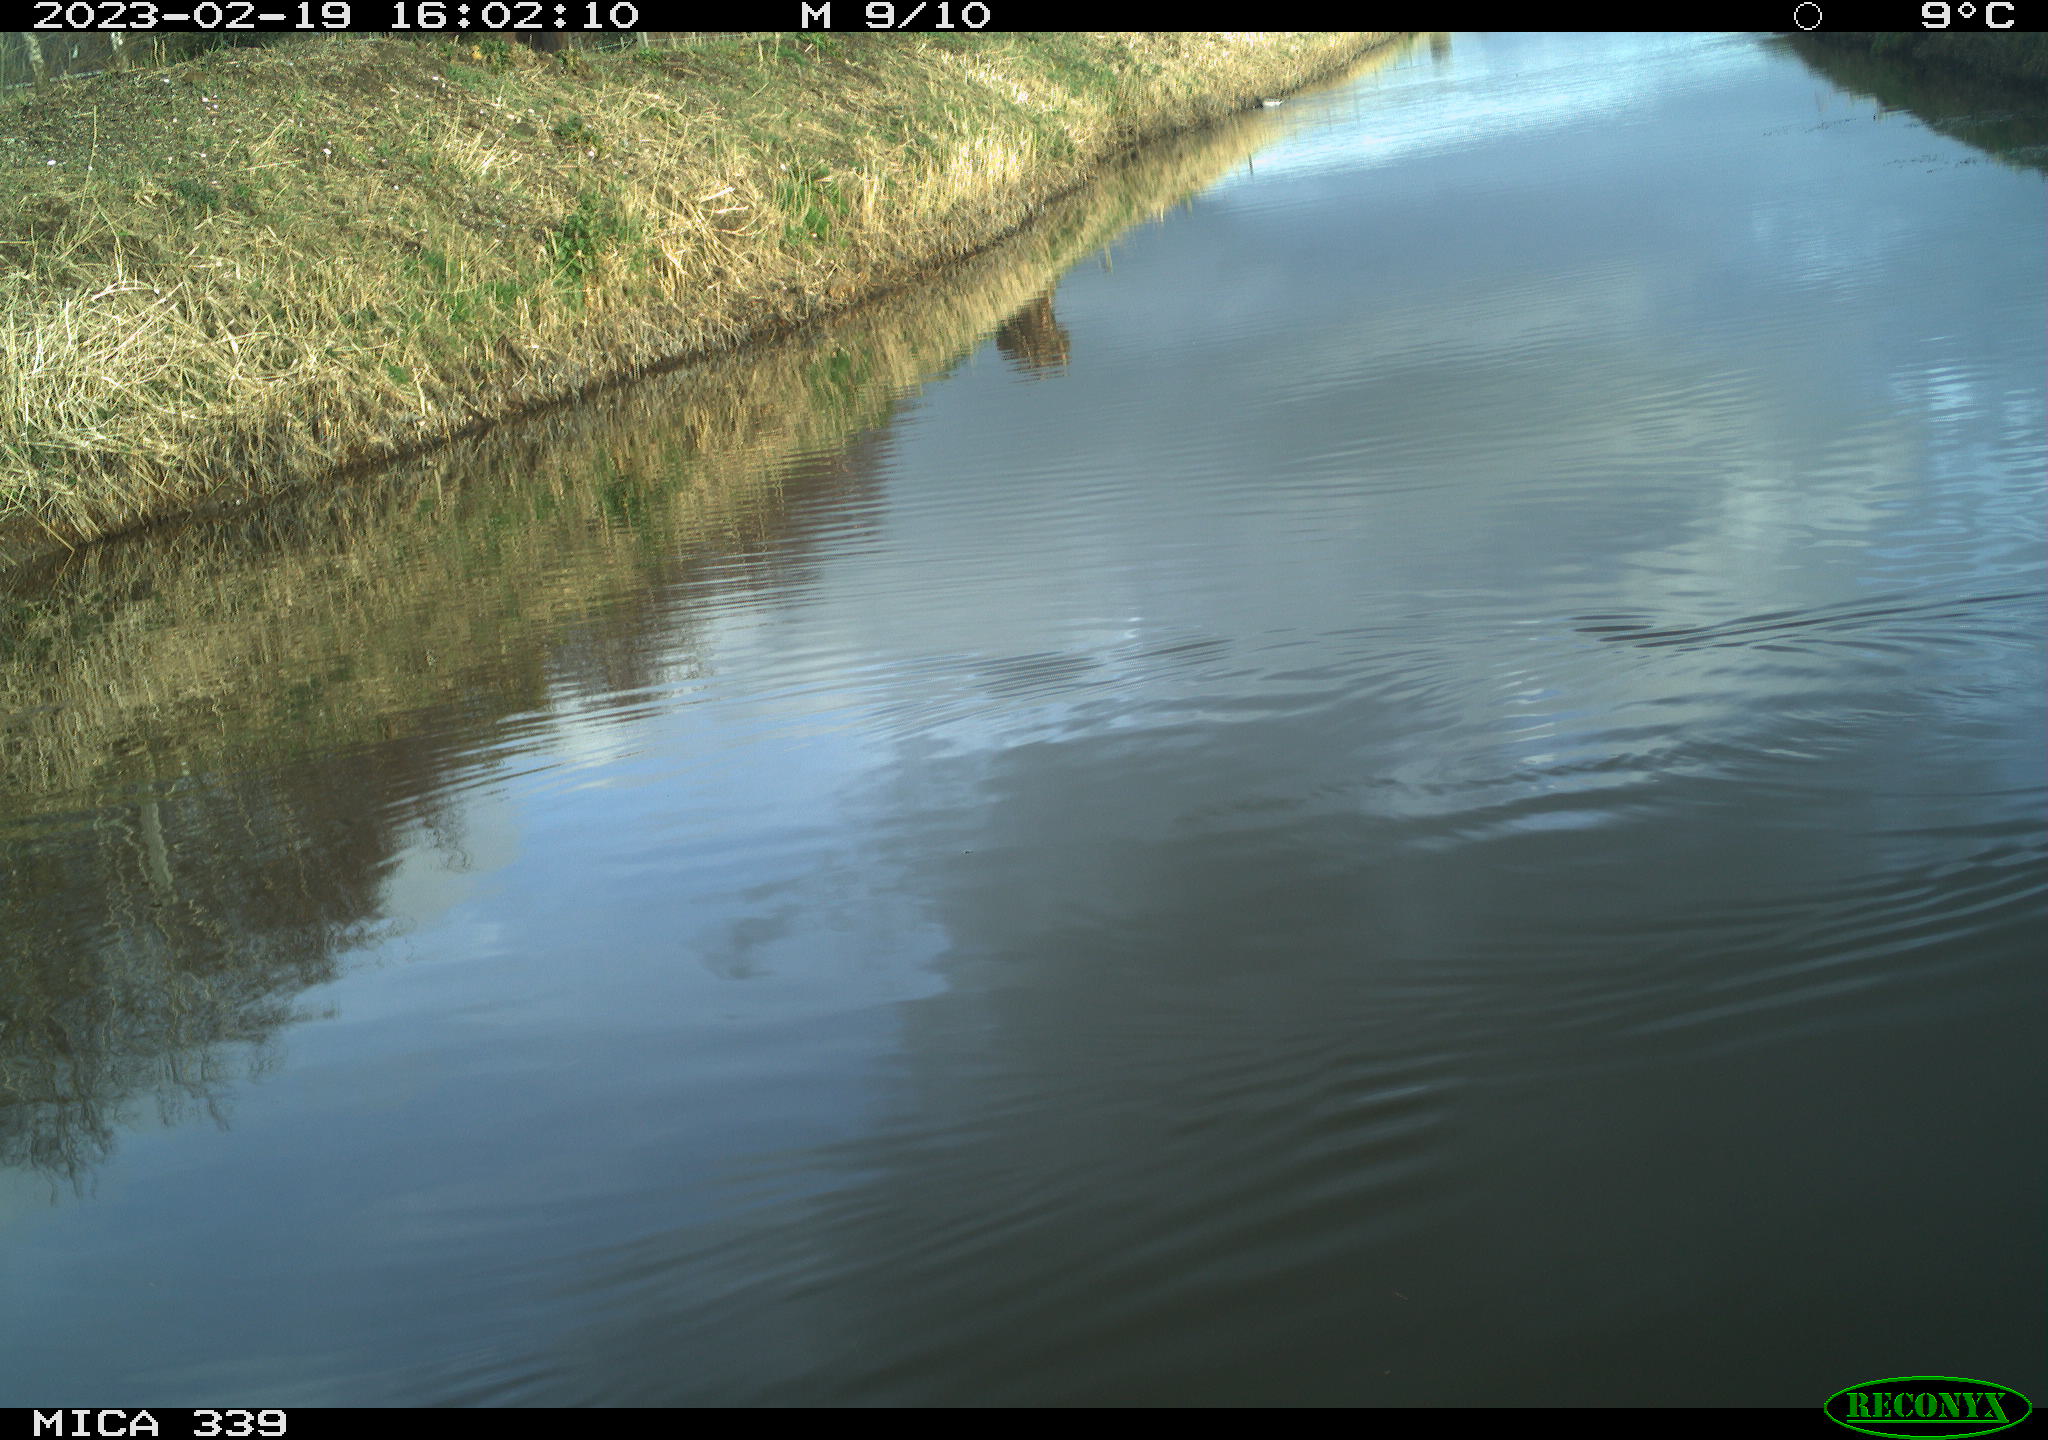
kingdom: Animalia
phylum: Chordata
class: Aves
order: Gruiformes
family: Rallidae
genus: Gallinula
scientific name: Gallinula chloropus
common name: Common moorhen
